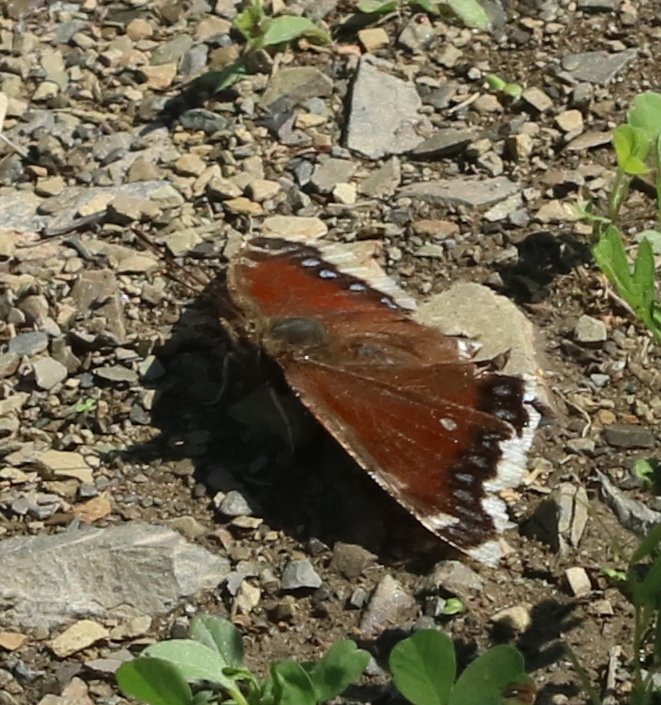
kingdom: Animalia
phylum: Arthropoda
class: Insecta
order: Lepidoptera
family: Nymphalidae
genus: Nymphalis
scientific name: Nymphalis antiopa
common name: Mourning Cloak
